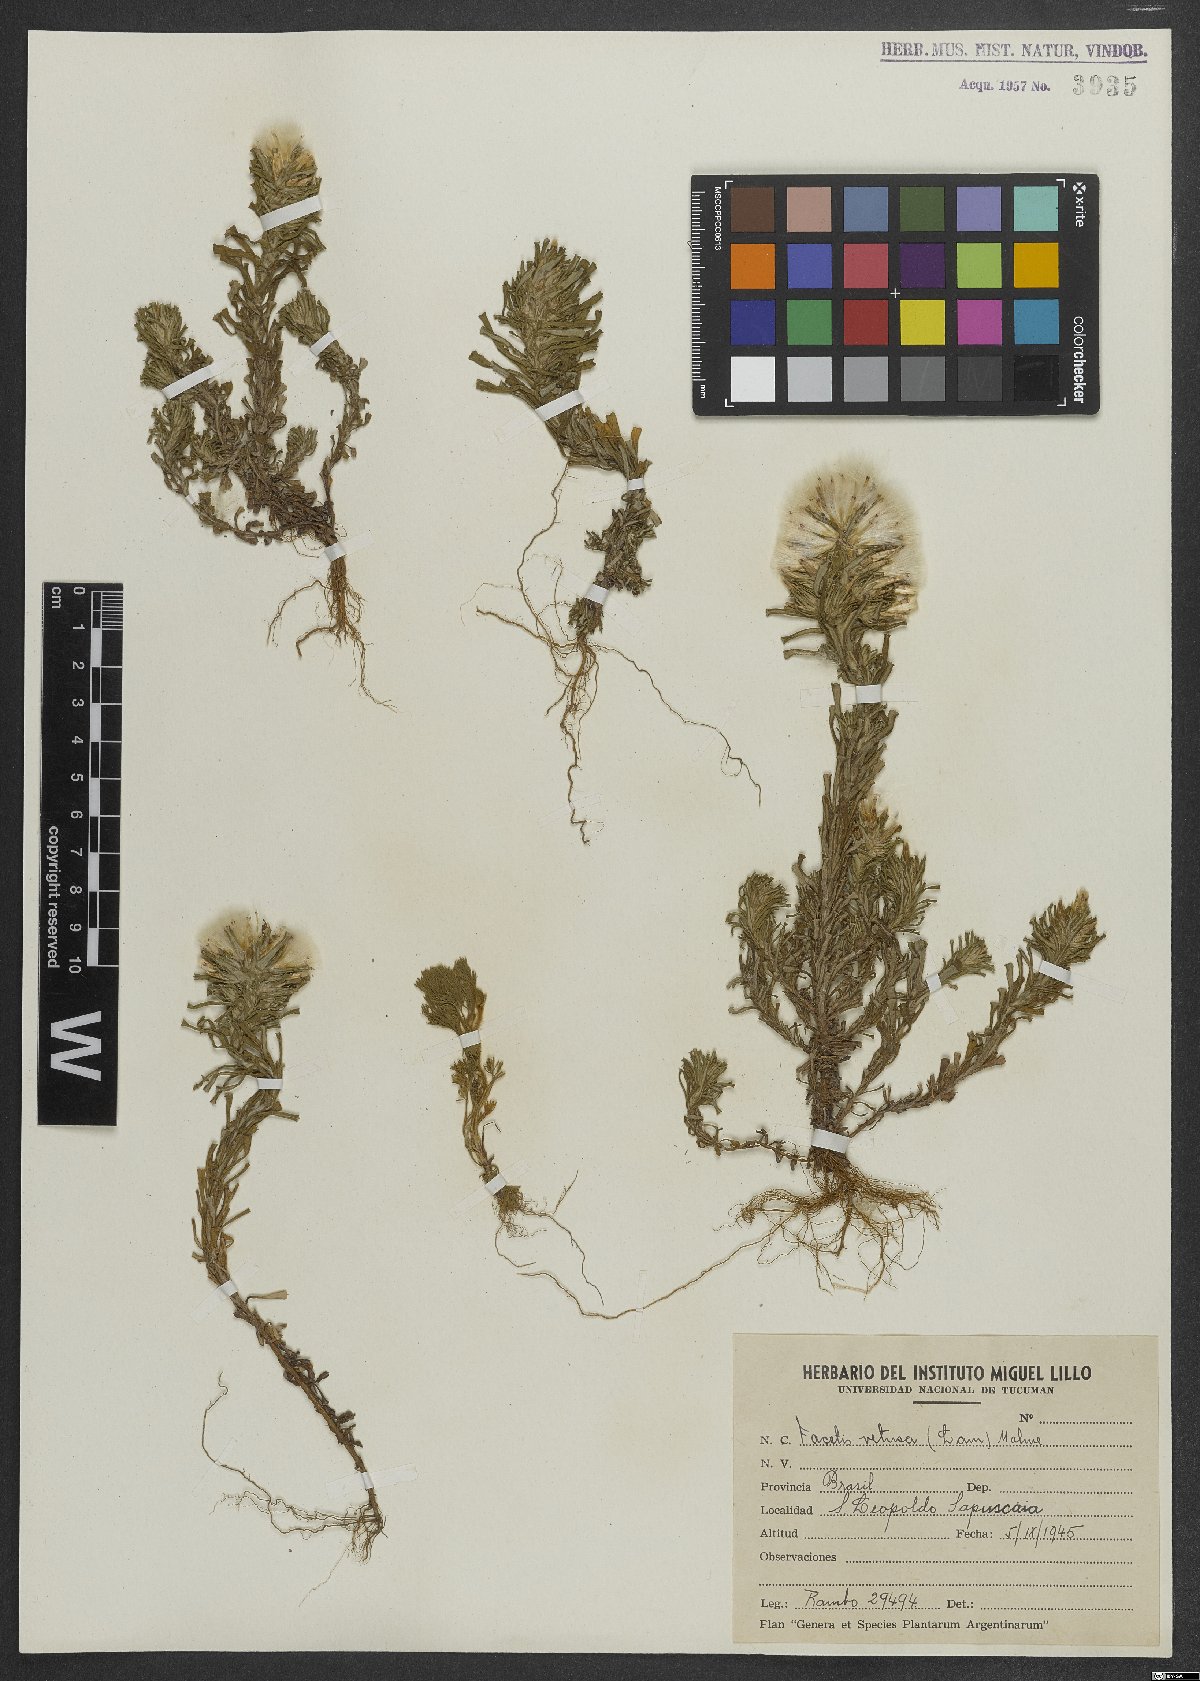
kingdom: Plantae
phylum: Tracheophyta
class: Magnoliopsida
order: Asterales
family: Asteraceae
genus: Facelis
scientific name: Facelis retusa
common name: Annual trampweed
